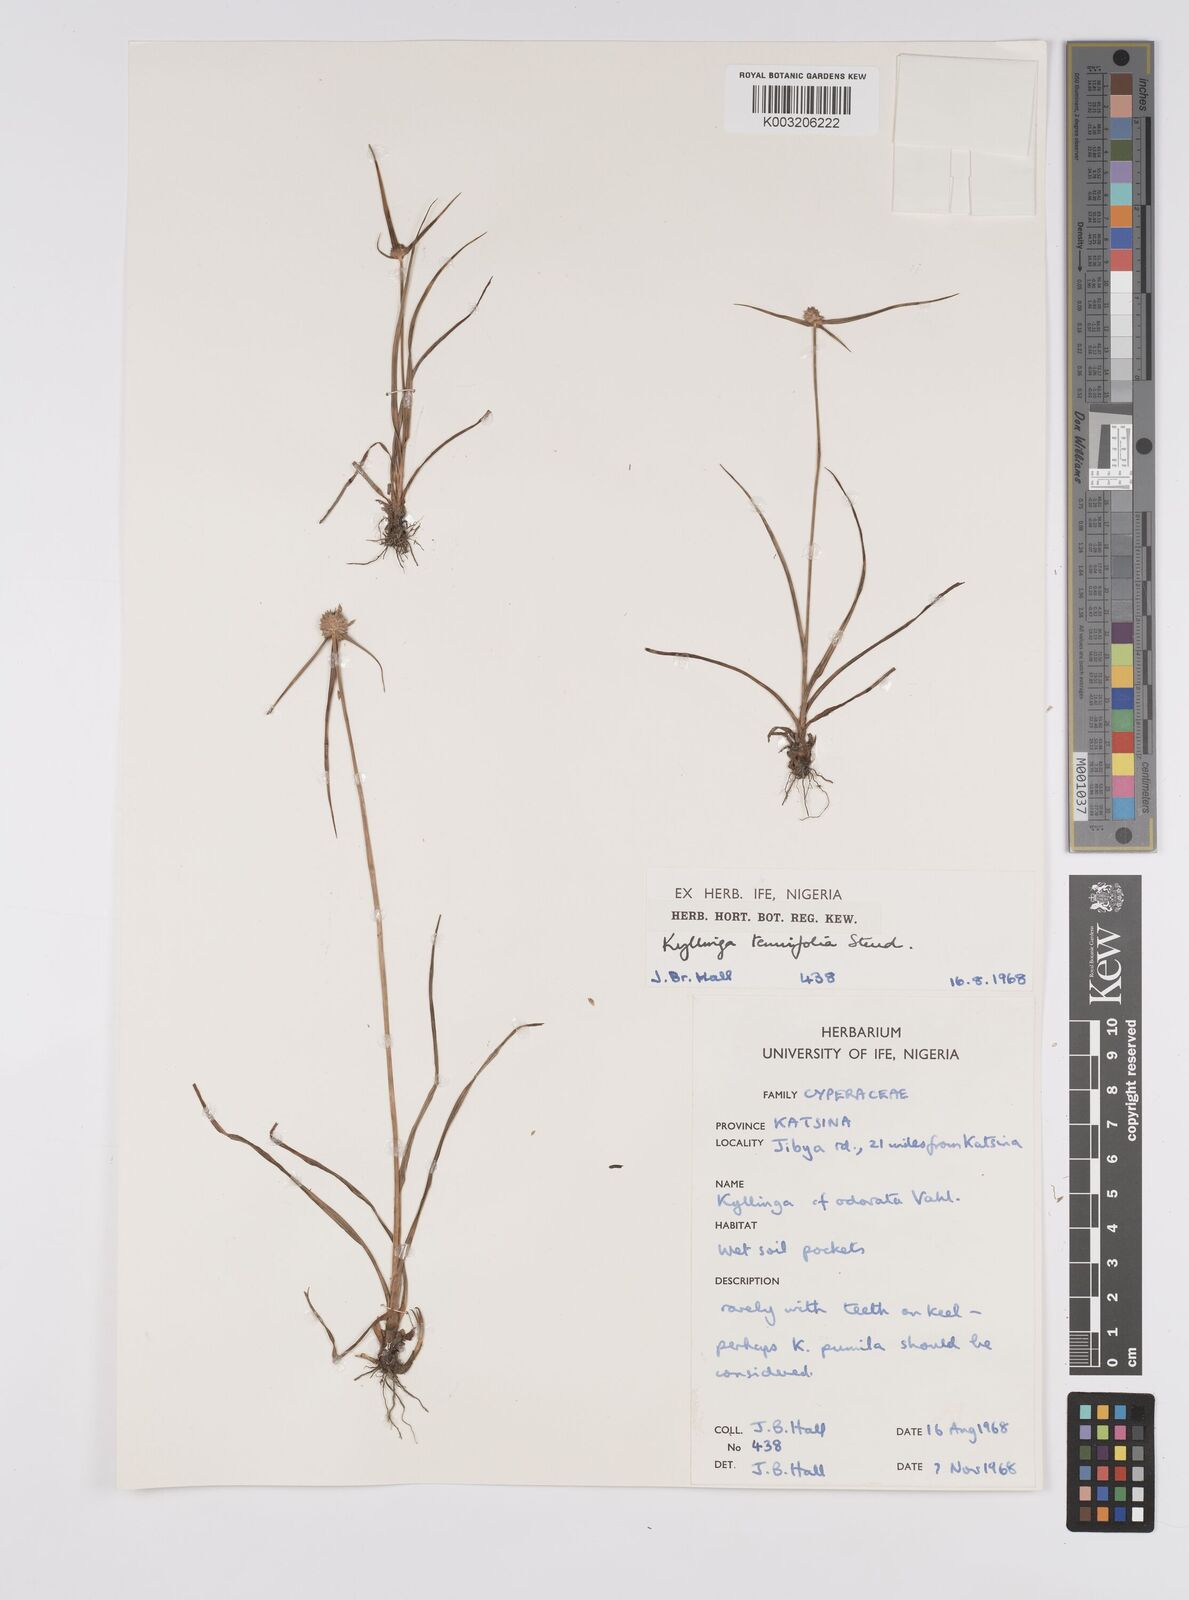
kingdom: Plantae
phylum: Tracheophyta
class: Liliopsida
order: Poales
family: Cyperaceae
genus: Cyperus
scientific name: Cyperus
